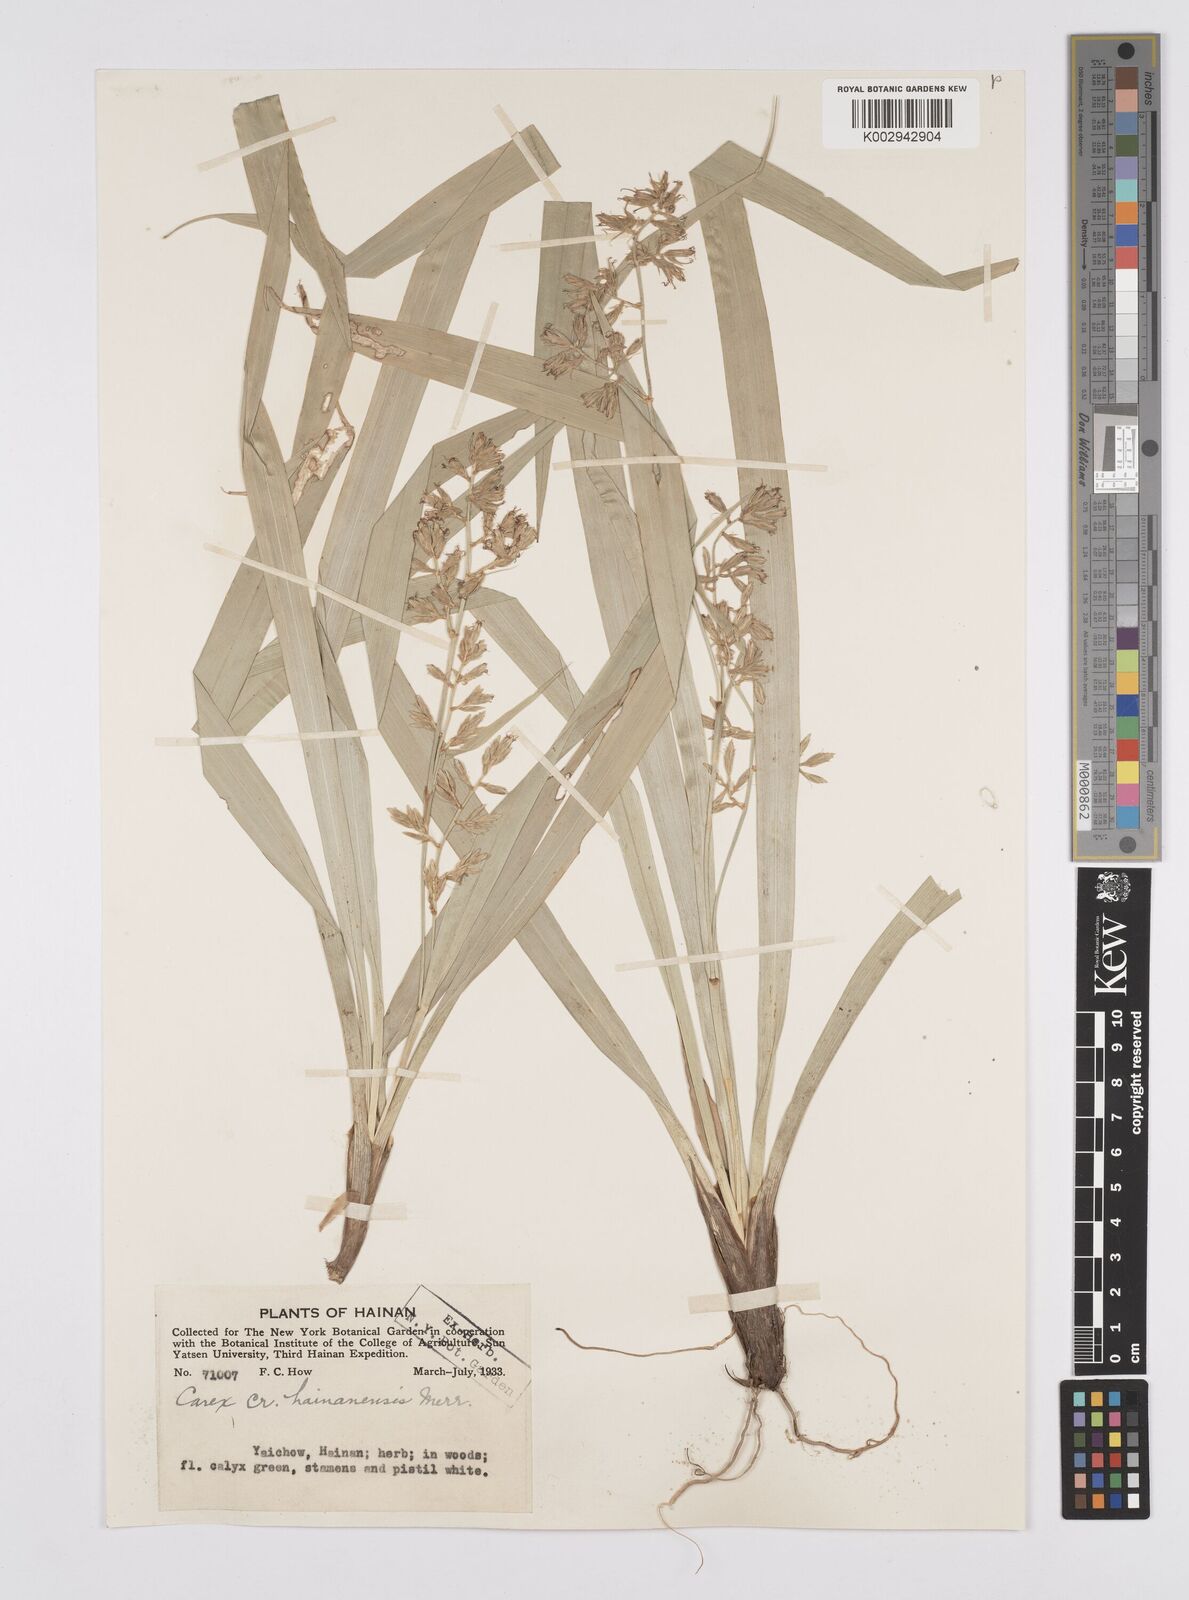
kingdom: Plantae
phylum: Tracheophyta
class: Liliopsida
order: Poales
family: Cyperaceae
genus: Carex
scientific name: Carex commixta
